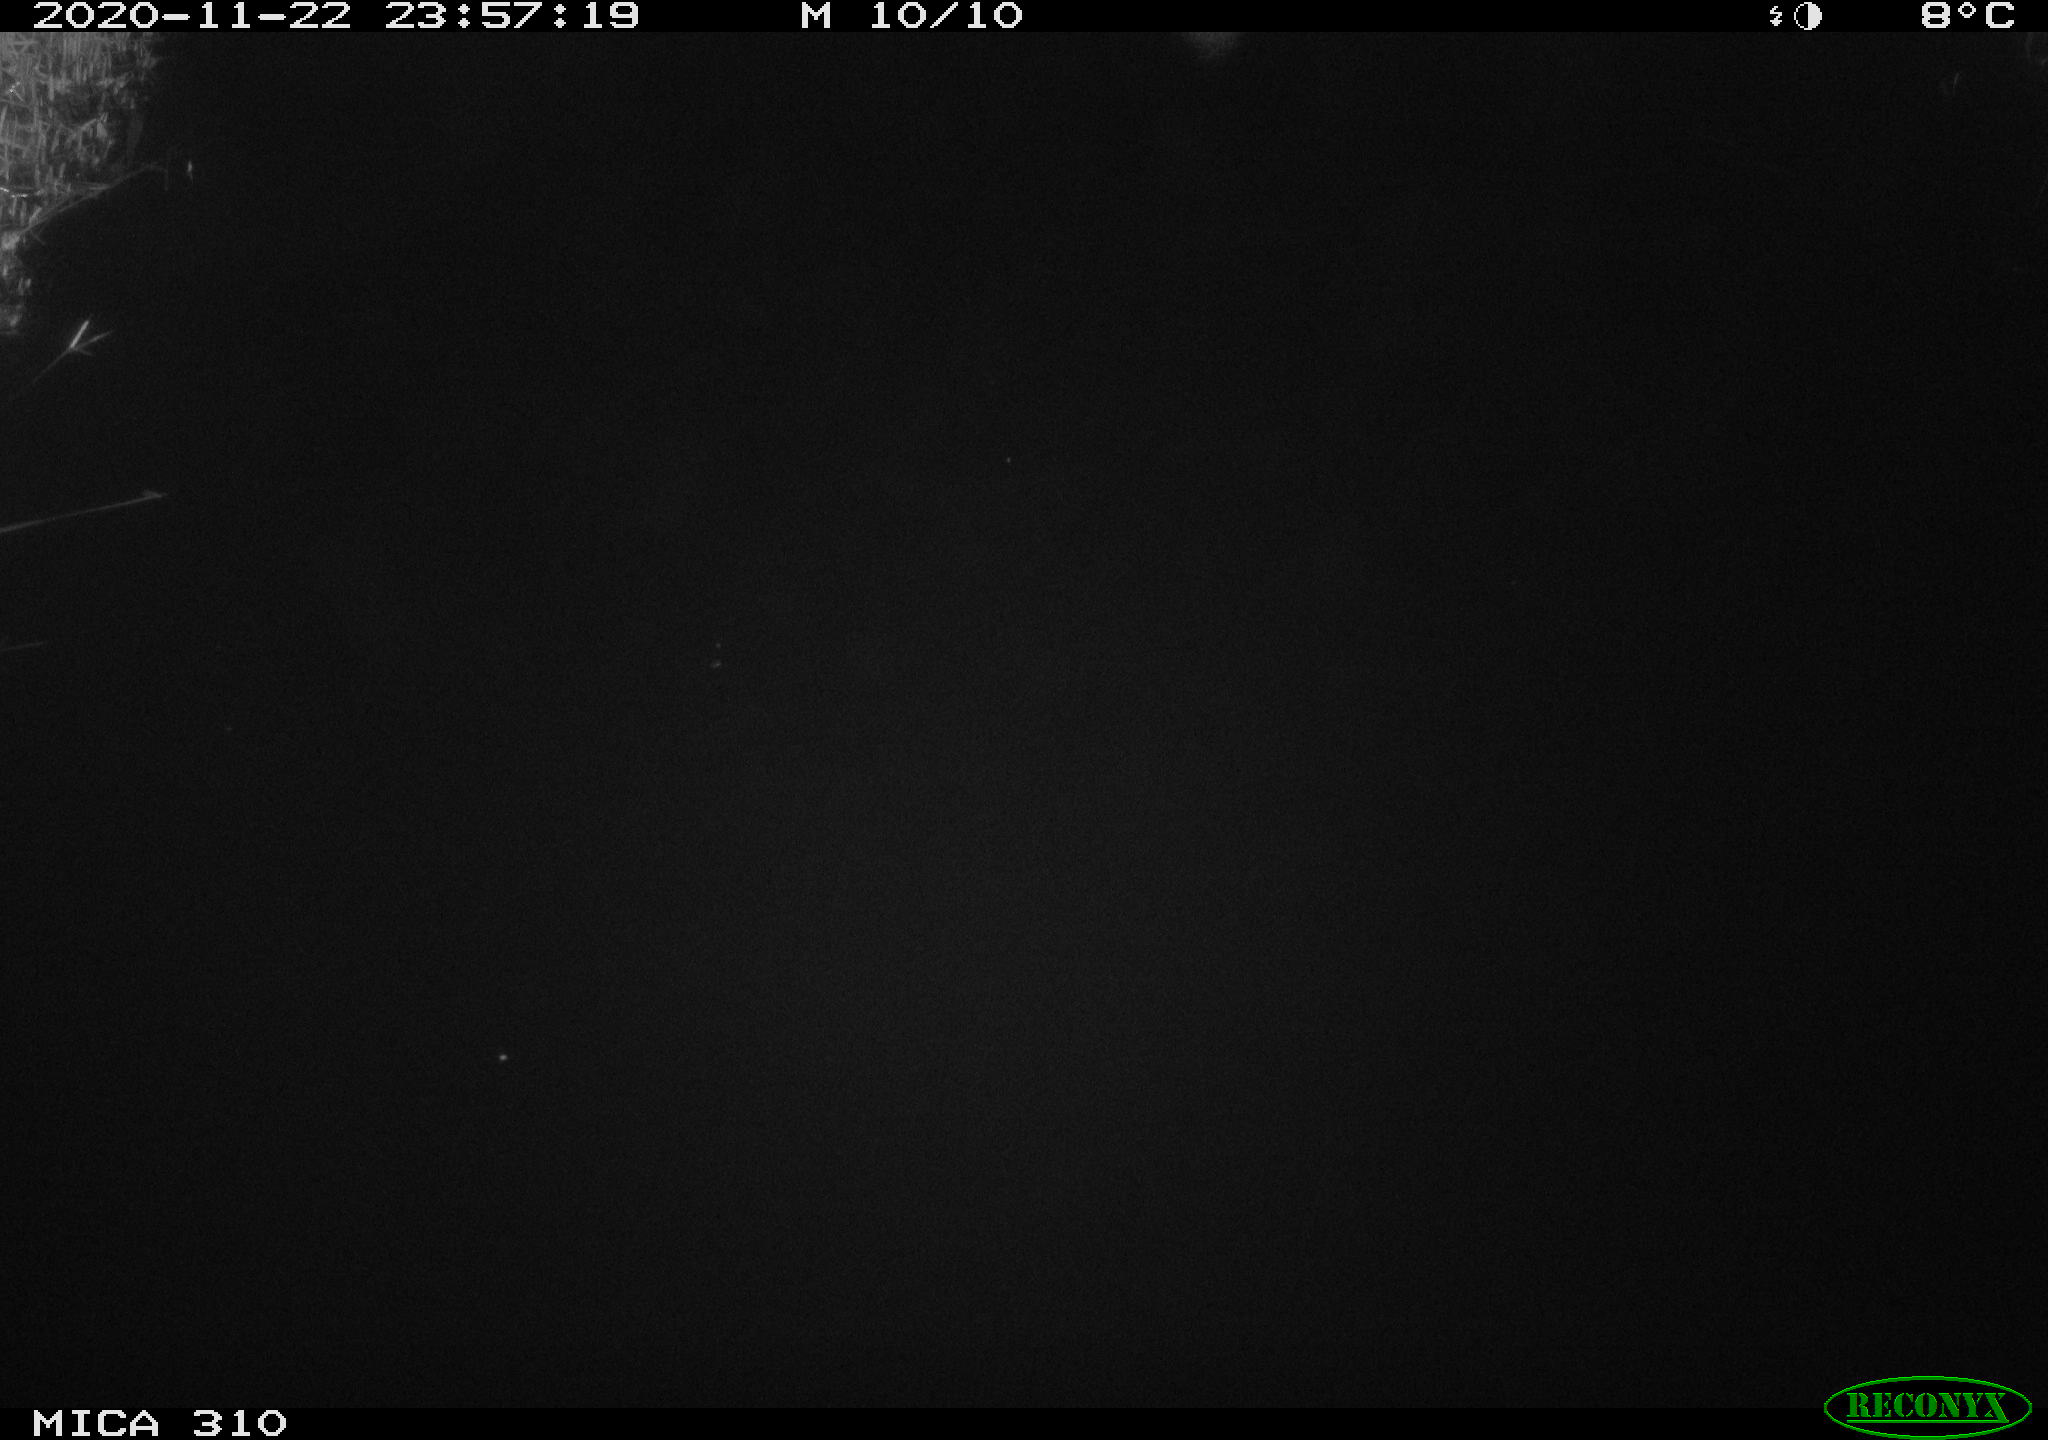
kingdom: Animalia
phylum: Chordata
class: Aves
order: Anseriformes
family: Anatidae
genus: Anas
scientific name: Anas platyrhynchos
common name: Mallard
